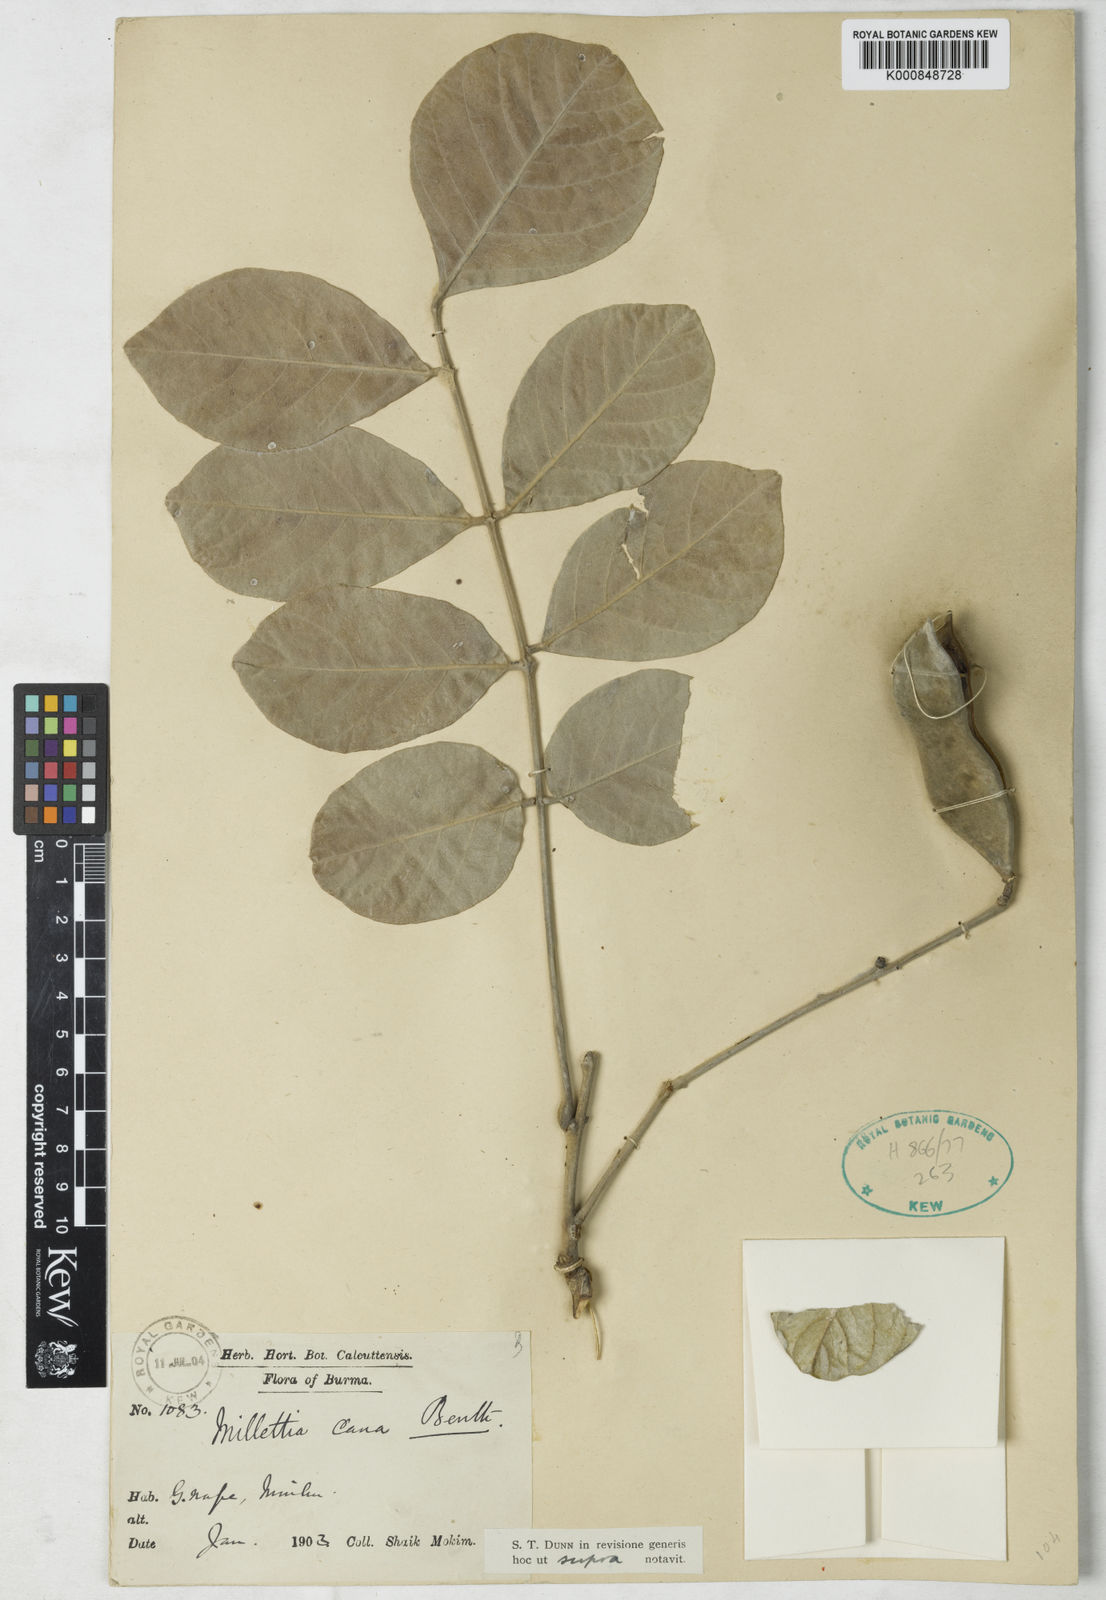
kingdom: Plantae
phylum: Tracheophyta
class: Magnoliopsida
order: Fabales
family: Fabaceae
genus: Millettia
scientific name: Millettia cana
